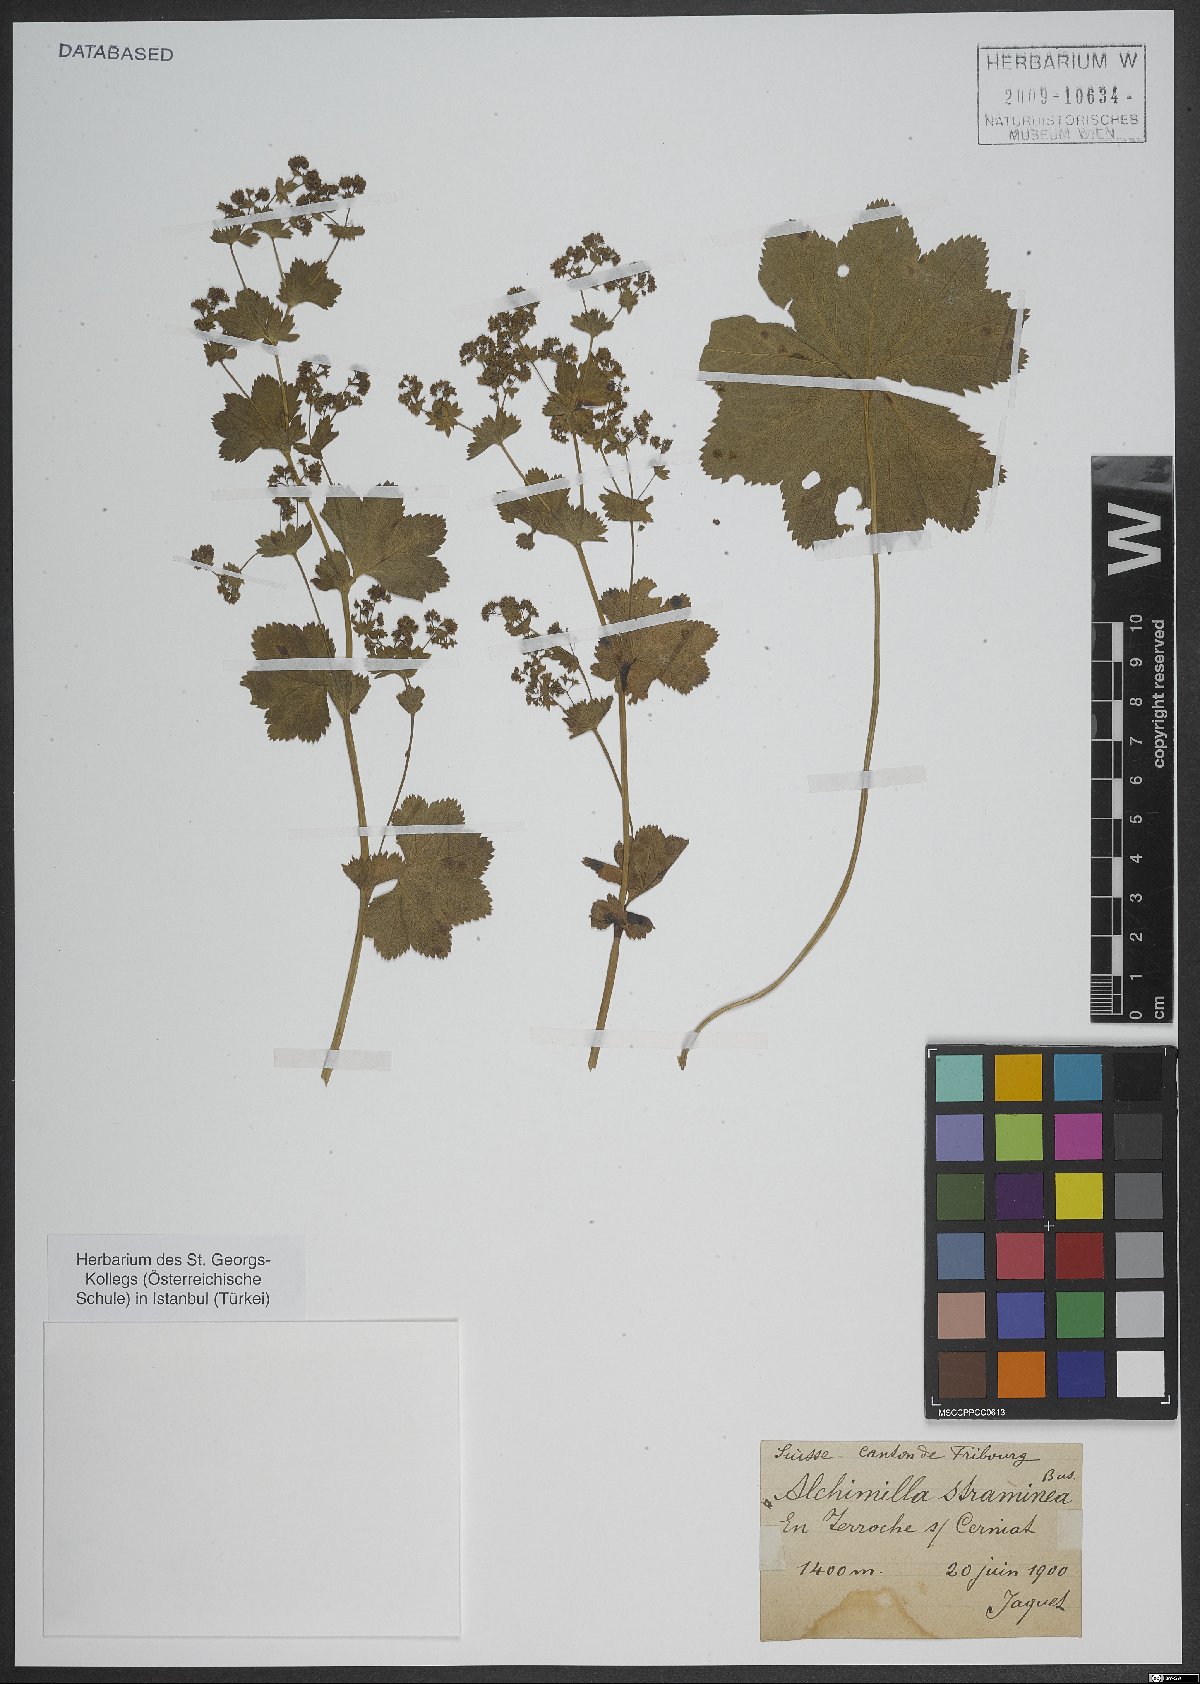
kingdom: Plantae
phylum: Tracheophyta
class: Magnoliopsida
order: Rosales
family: Rosaceae
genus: Alchemilla
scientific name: Alchemilla straminea
